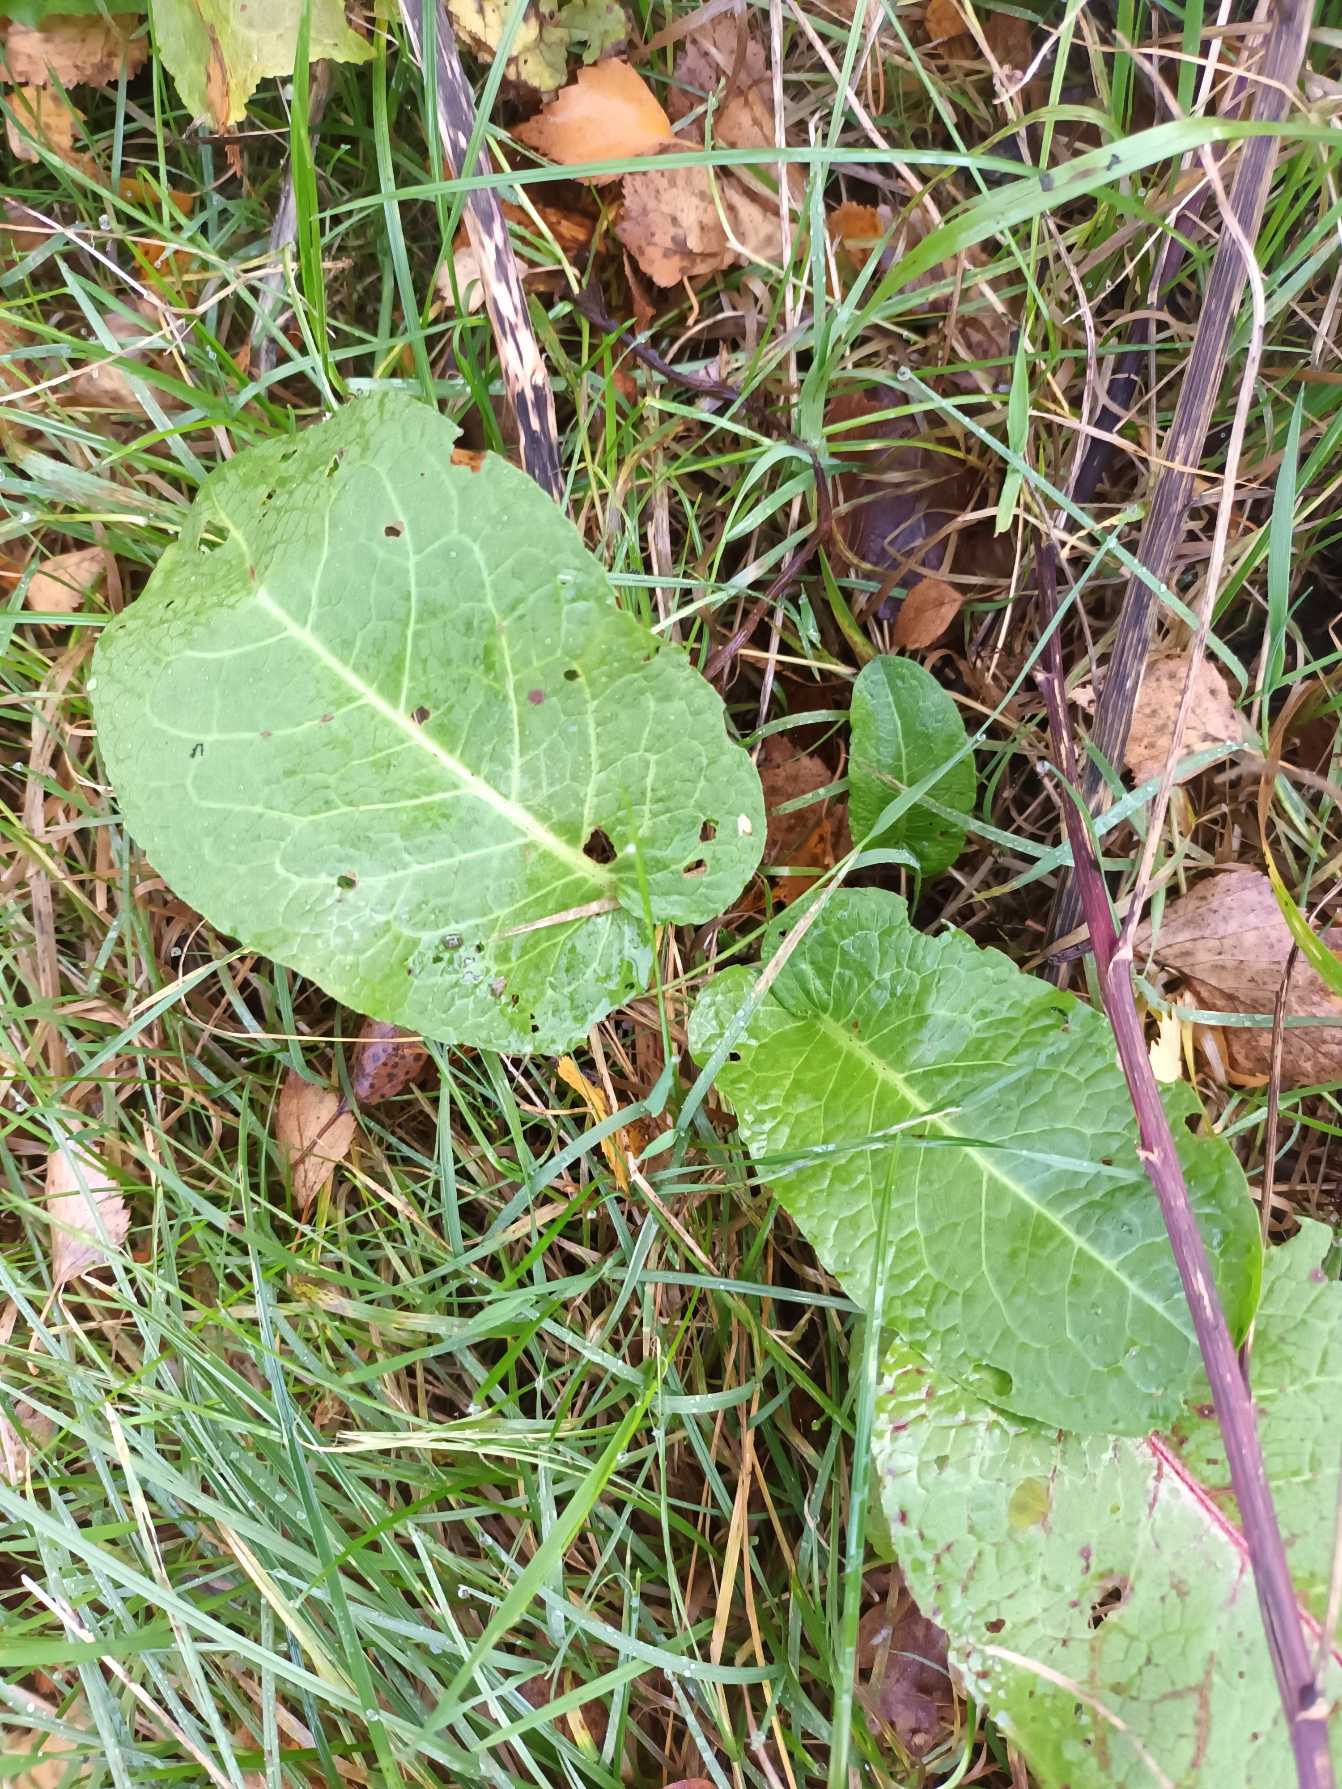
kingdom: Plantae
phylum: Tracheophyta
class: Magnoliopsida
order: Caryophyllales
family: Polygonaceae
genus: Rumex
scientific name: Rumex obtusifolius
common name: Butbladet skræppe
